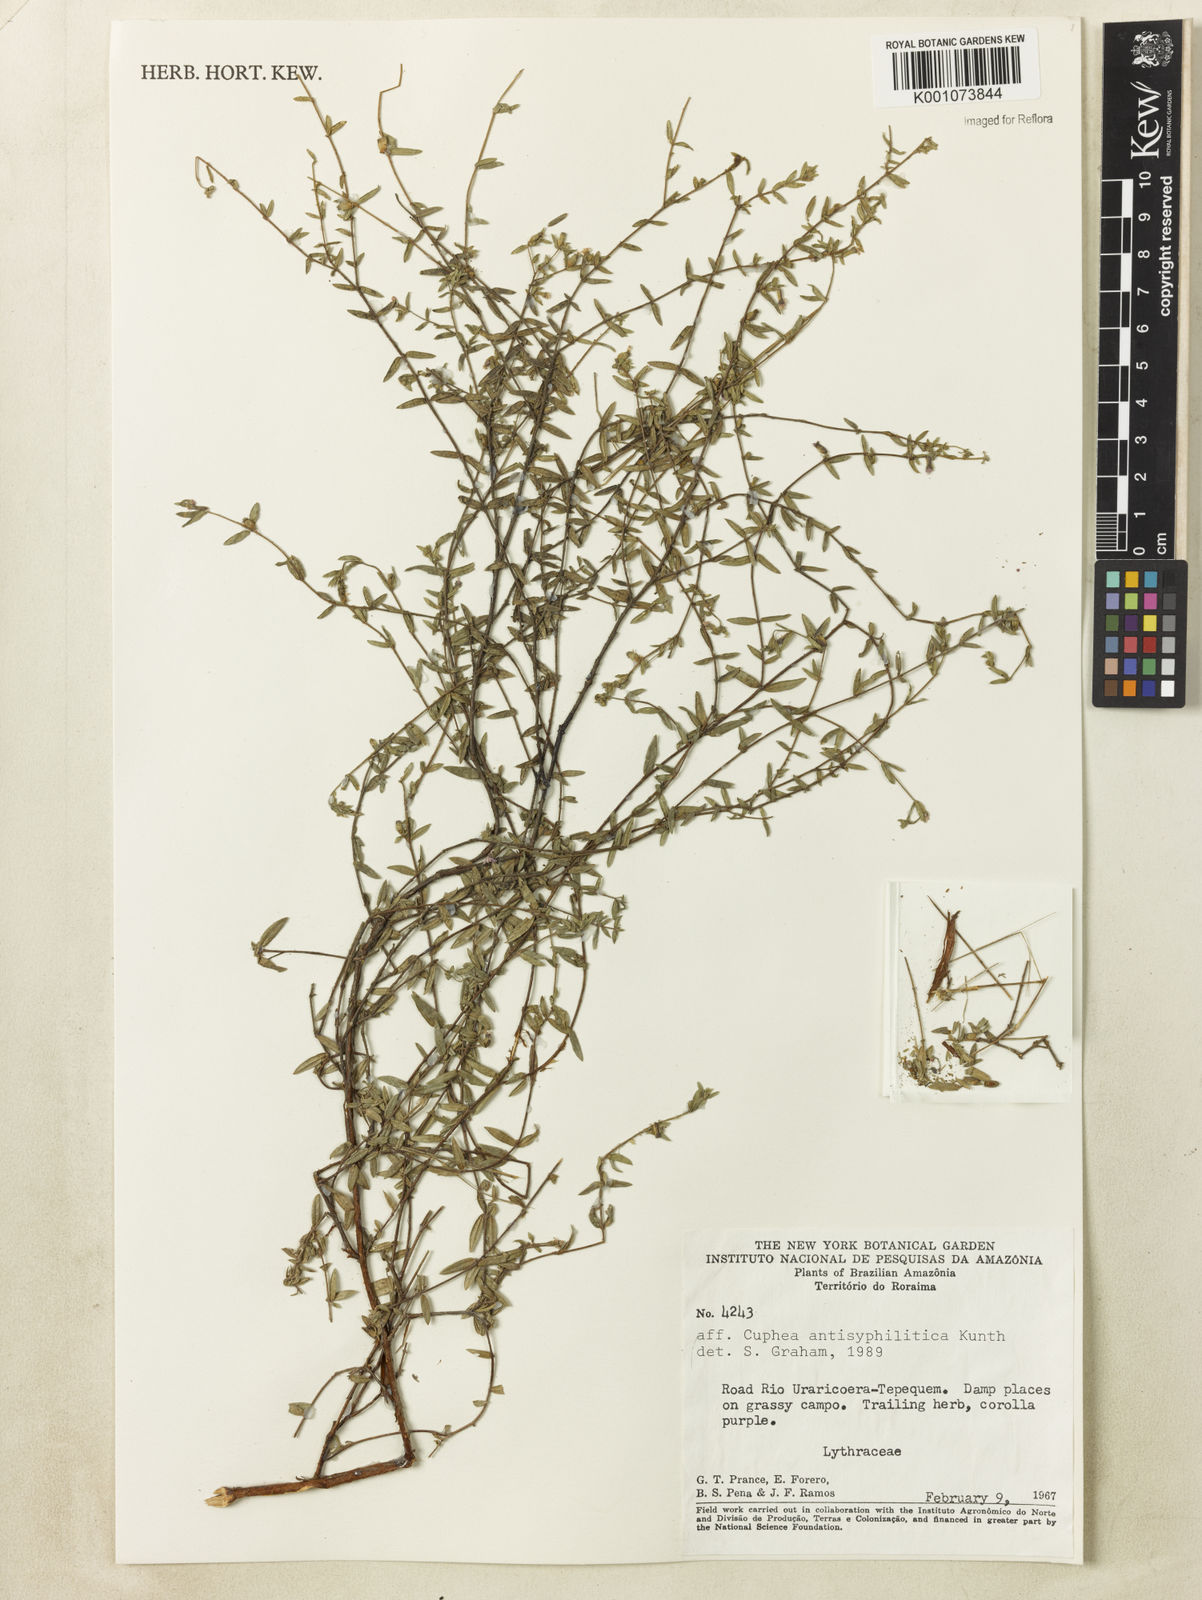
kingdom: Plantae
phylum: Tracheophyta
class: Magnoliopsida
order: Myrtales
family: Lythraceae
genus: Cuphea
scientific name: Cuphea antisyphilitica
